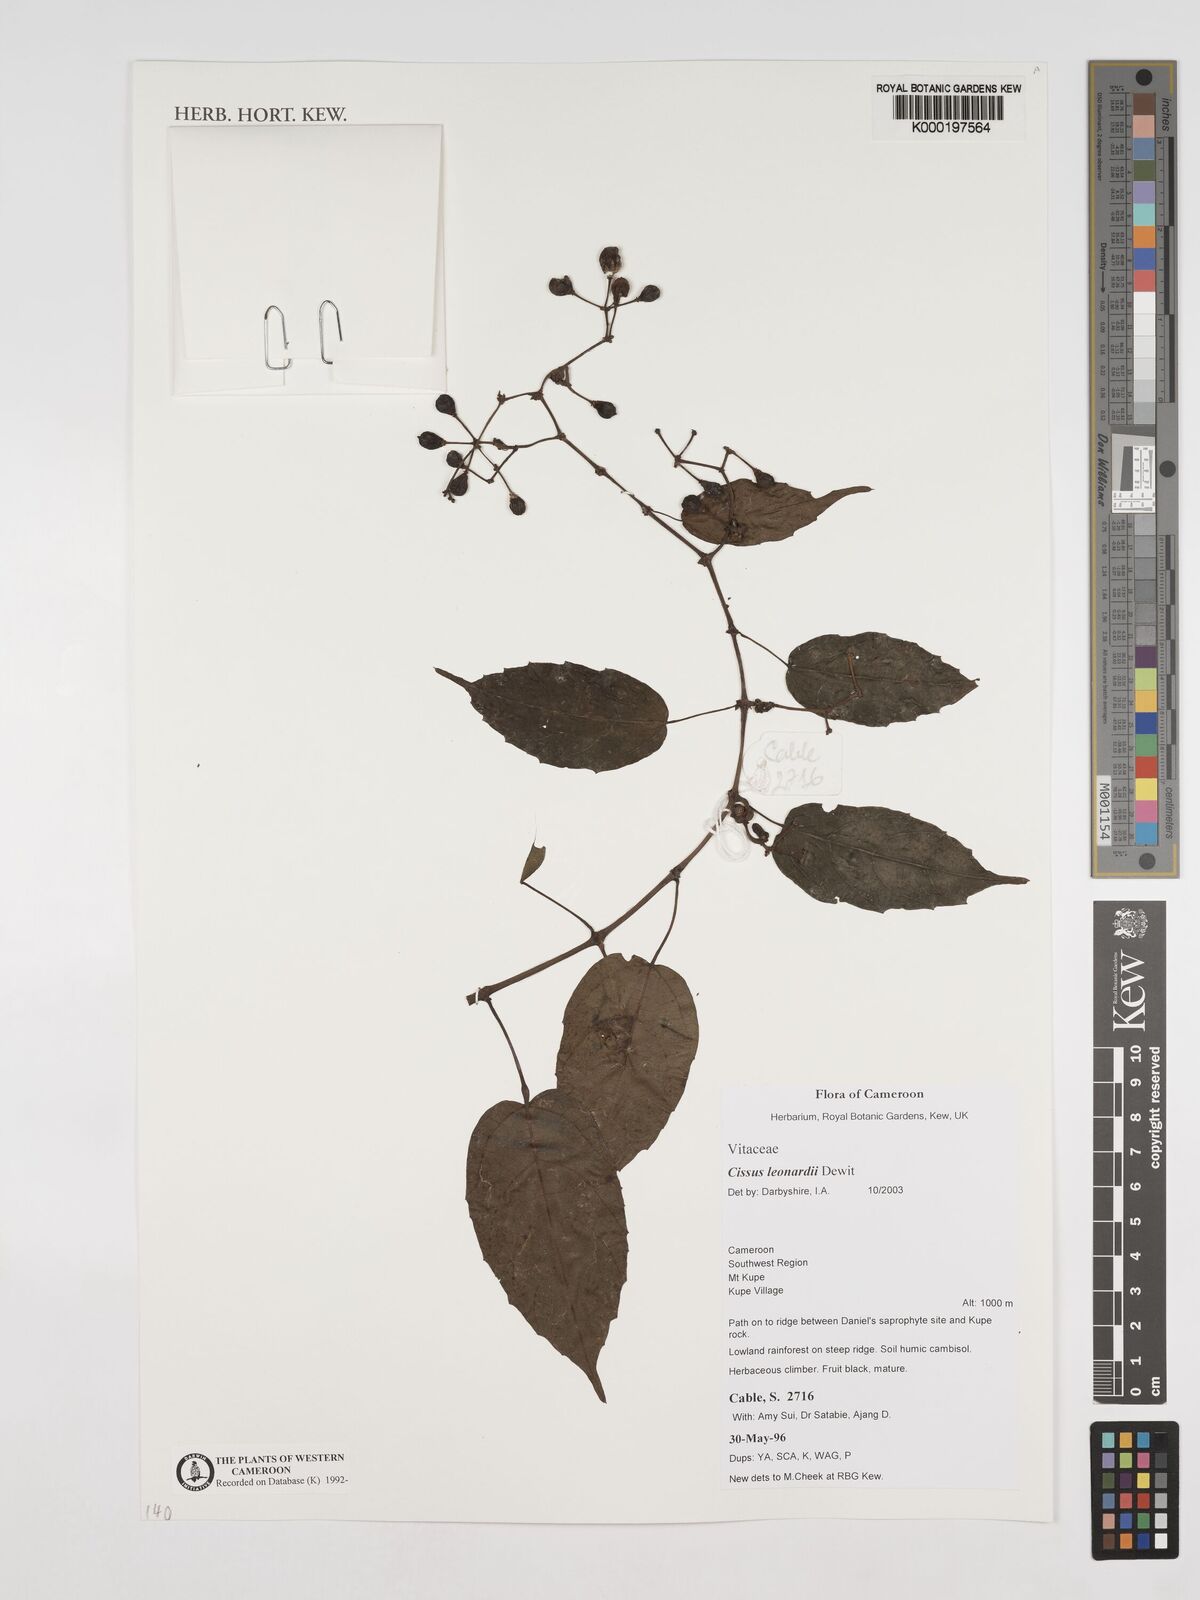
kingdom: Plantae
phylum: Tracheophyta
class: Magnoliopsida
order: Vitales
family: Vitaceae
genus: Cissus
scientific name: Cissus leonardii
